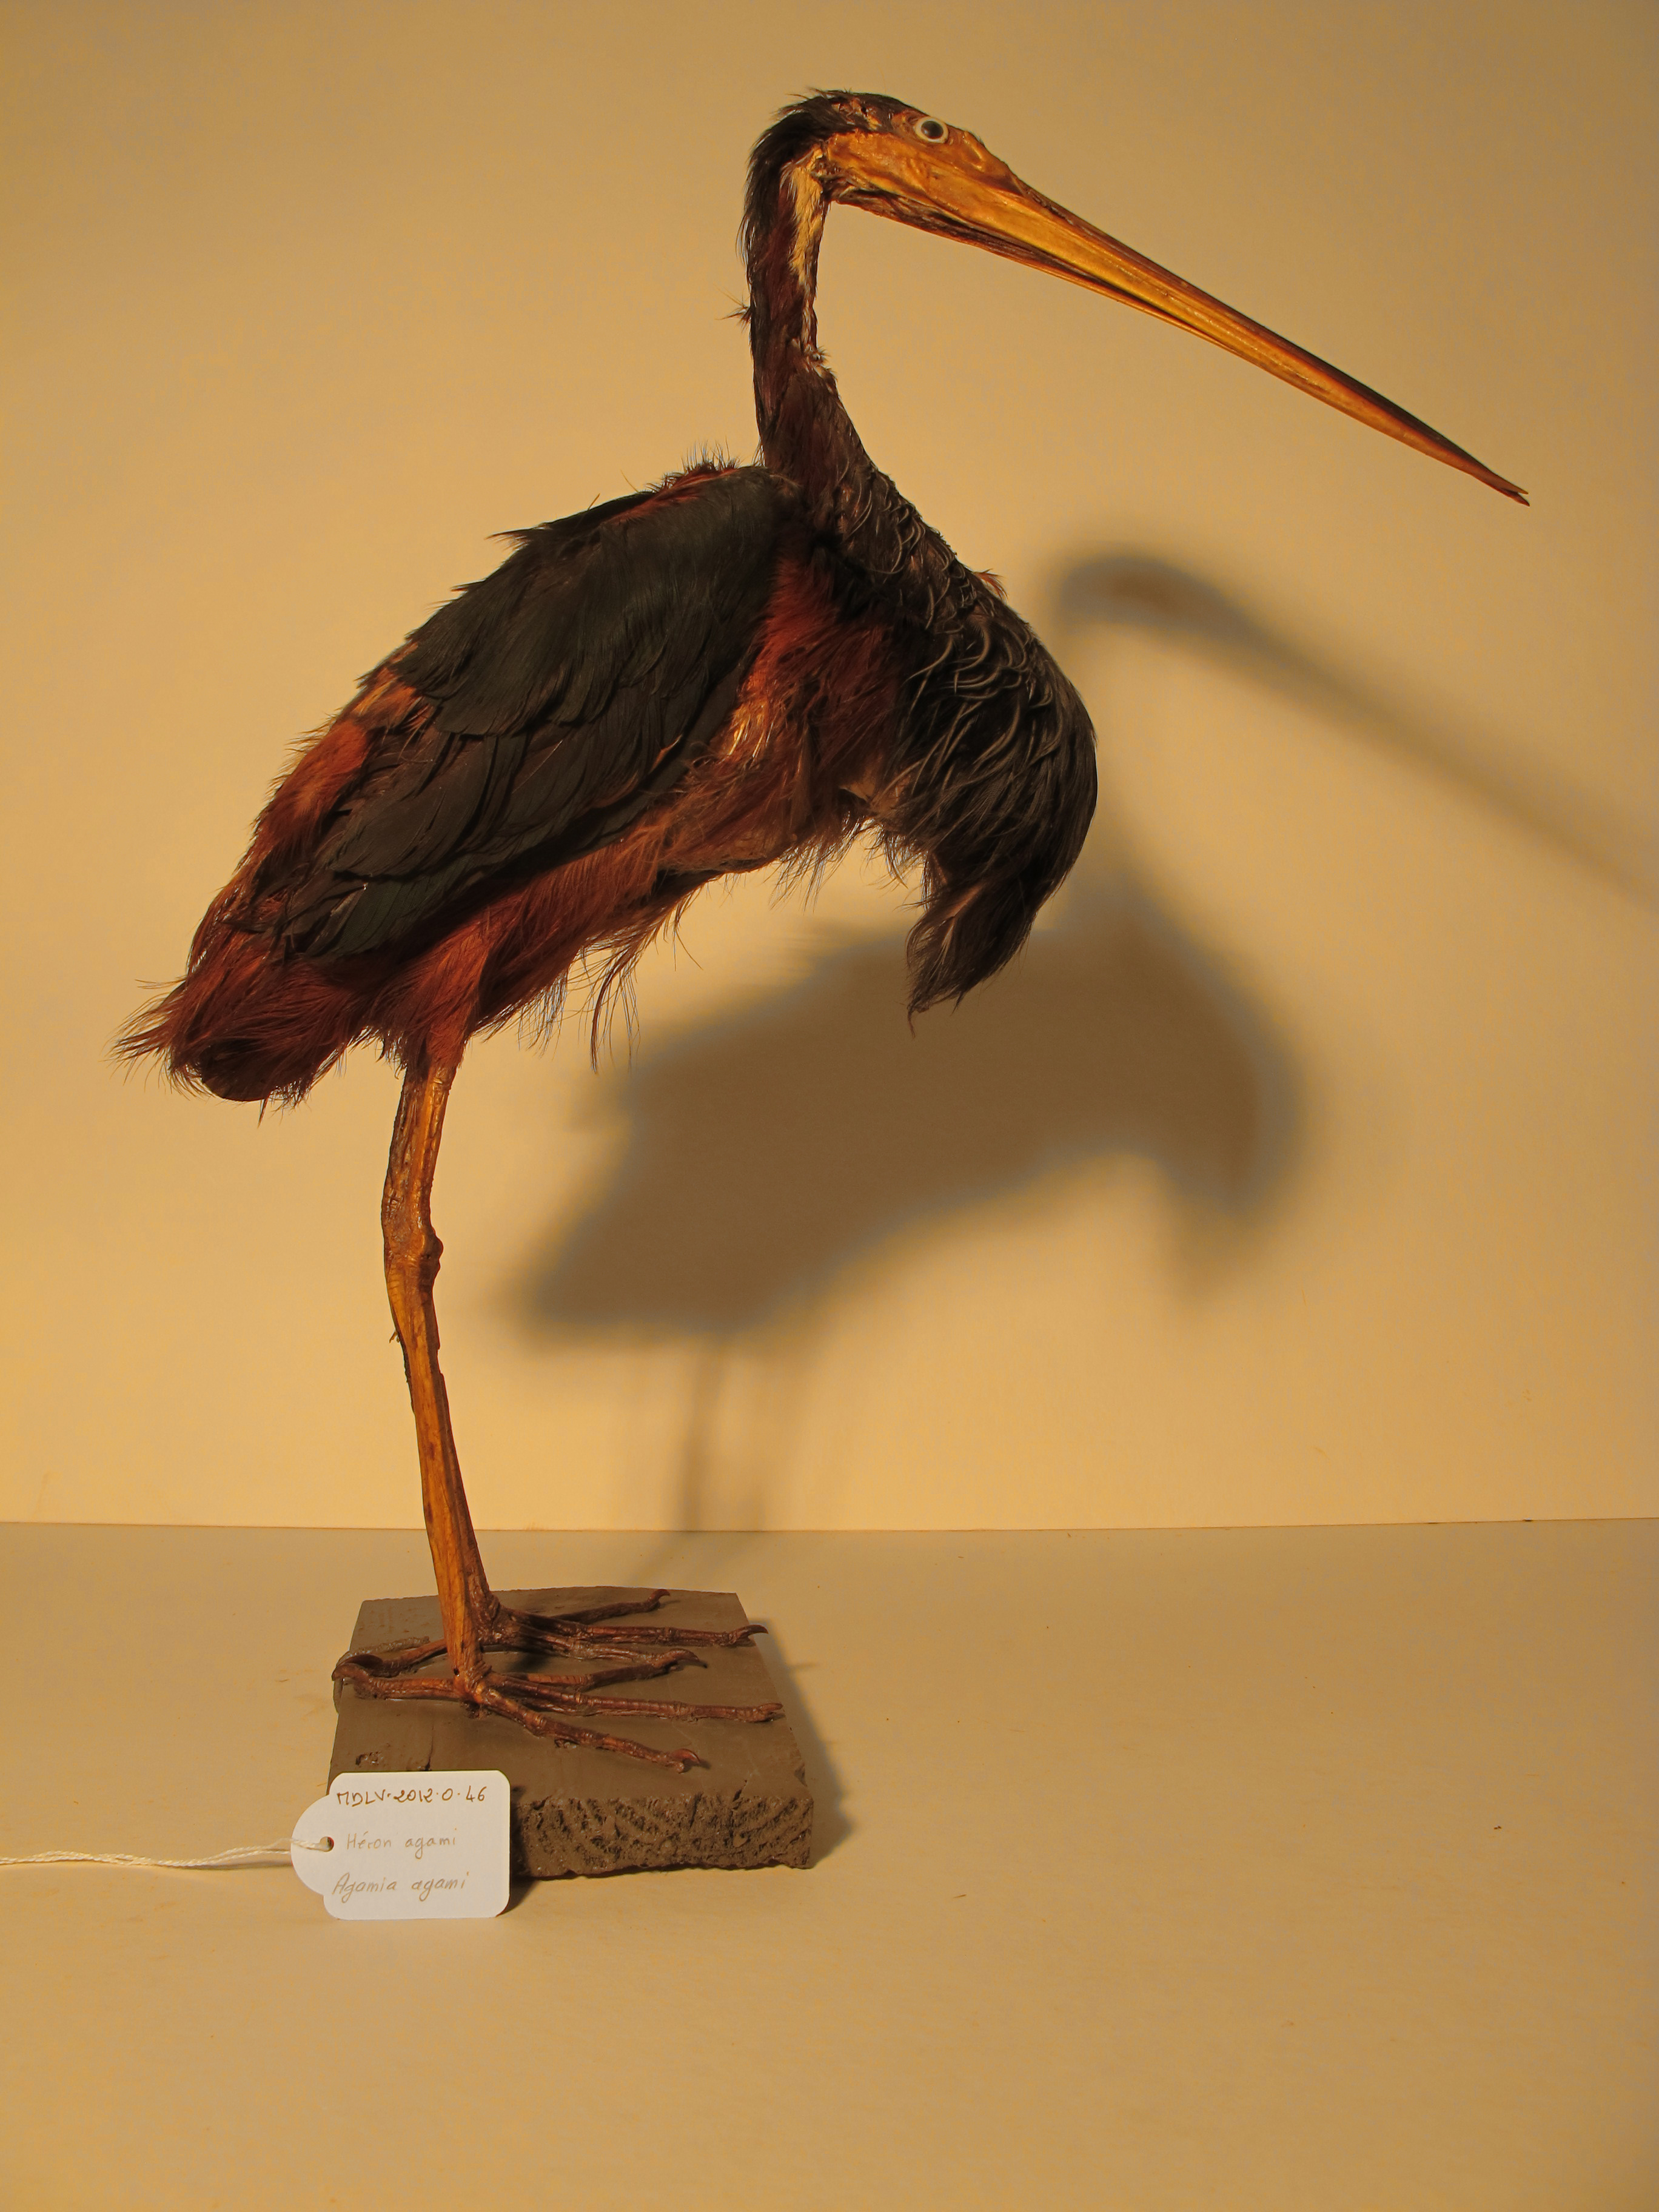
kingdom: Animalia
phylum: Chordata
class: Aves
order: Pelecaniformes
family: Ardeidae
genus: Agamia
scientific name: Agamia agami
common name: Agami Heron
